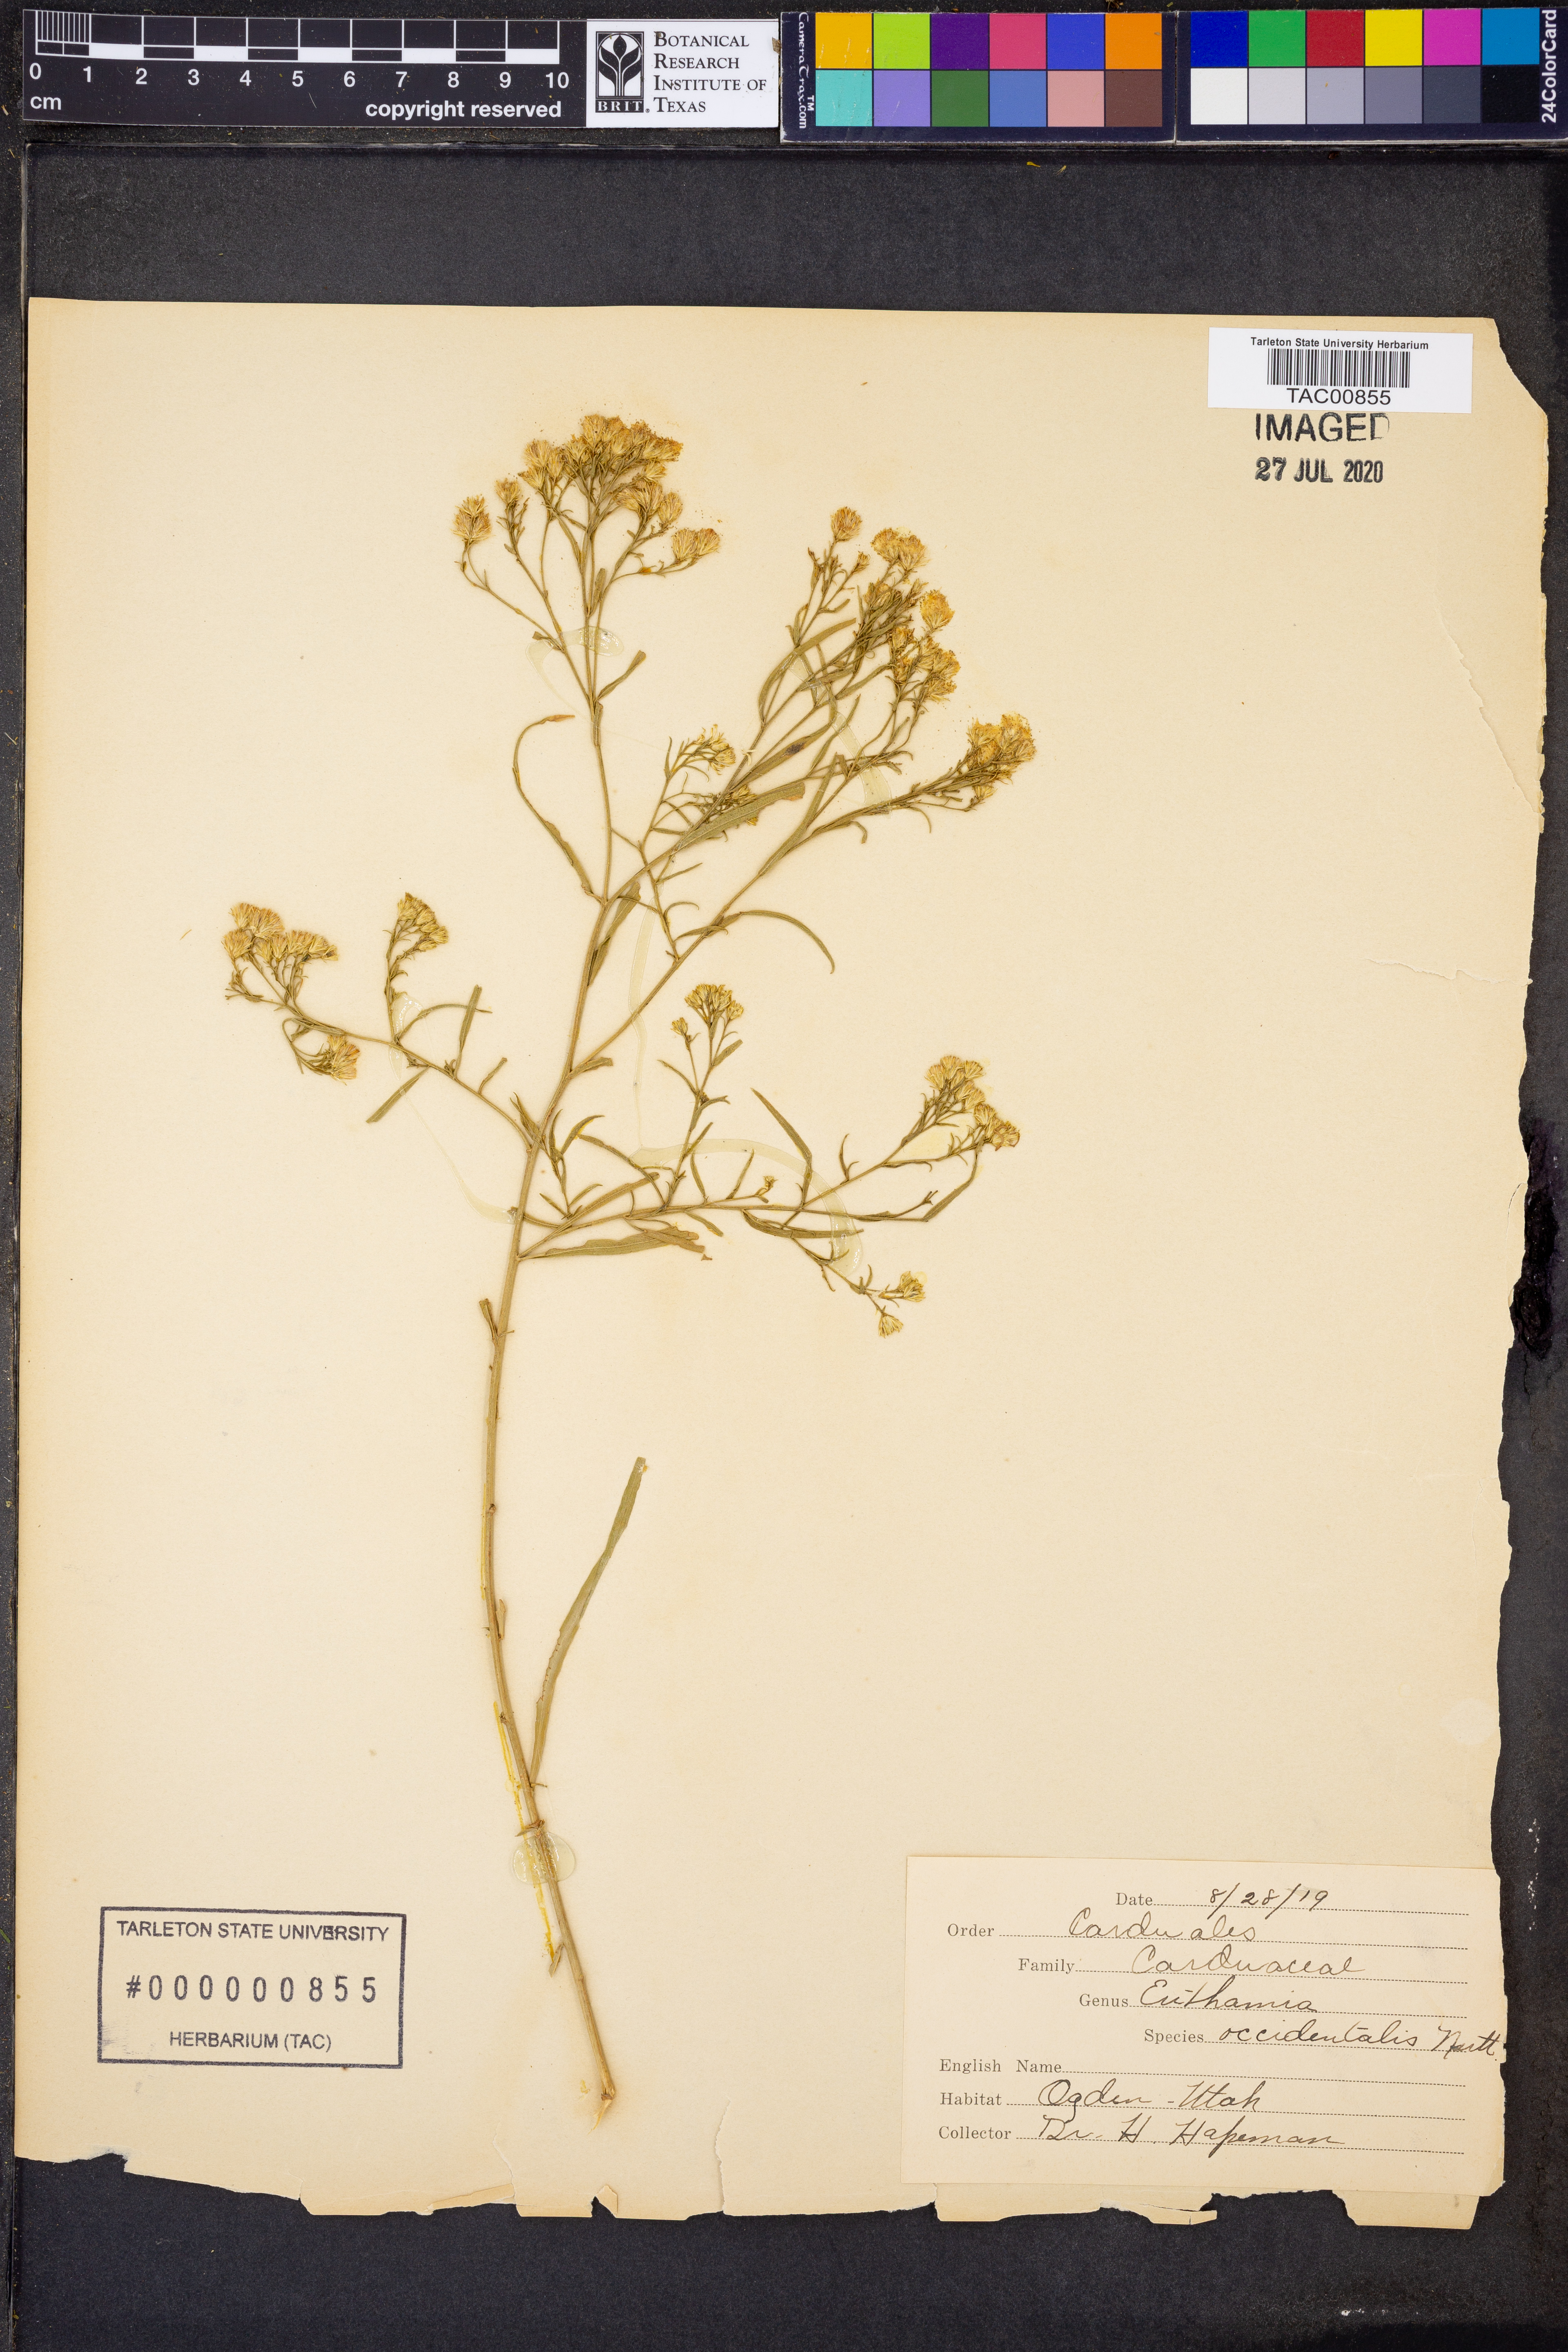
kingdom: Plantae
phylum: Tracheophyta
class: Magnoliopsida
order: Asterales
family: Asteraceae
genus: Euthamia
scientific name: Euthamia occidentalis
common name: Western goldentop
